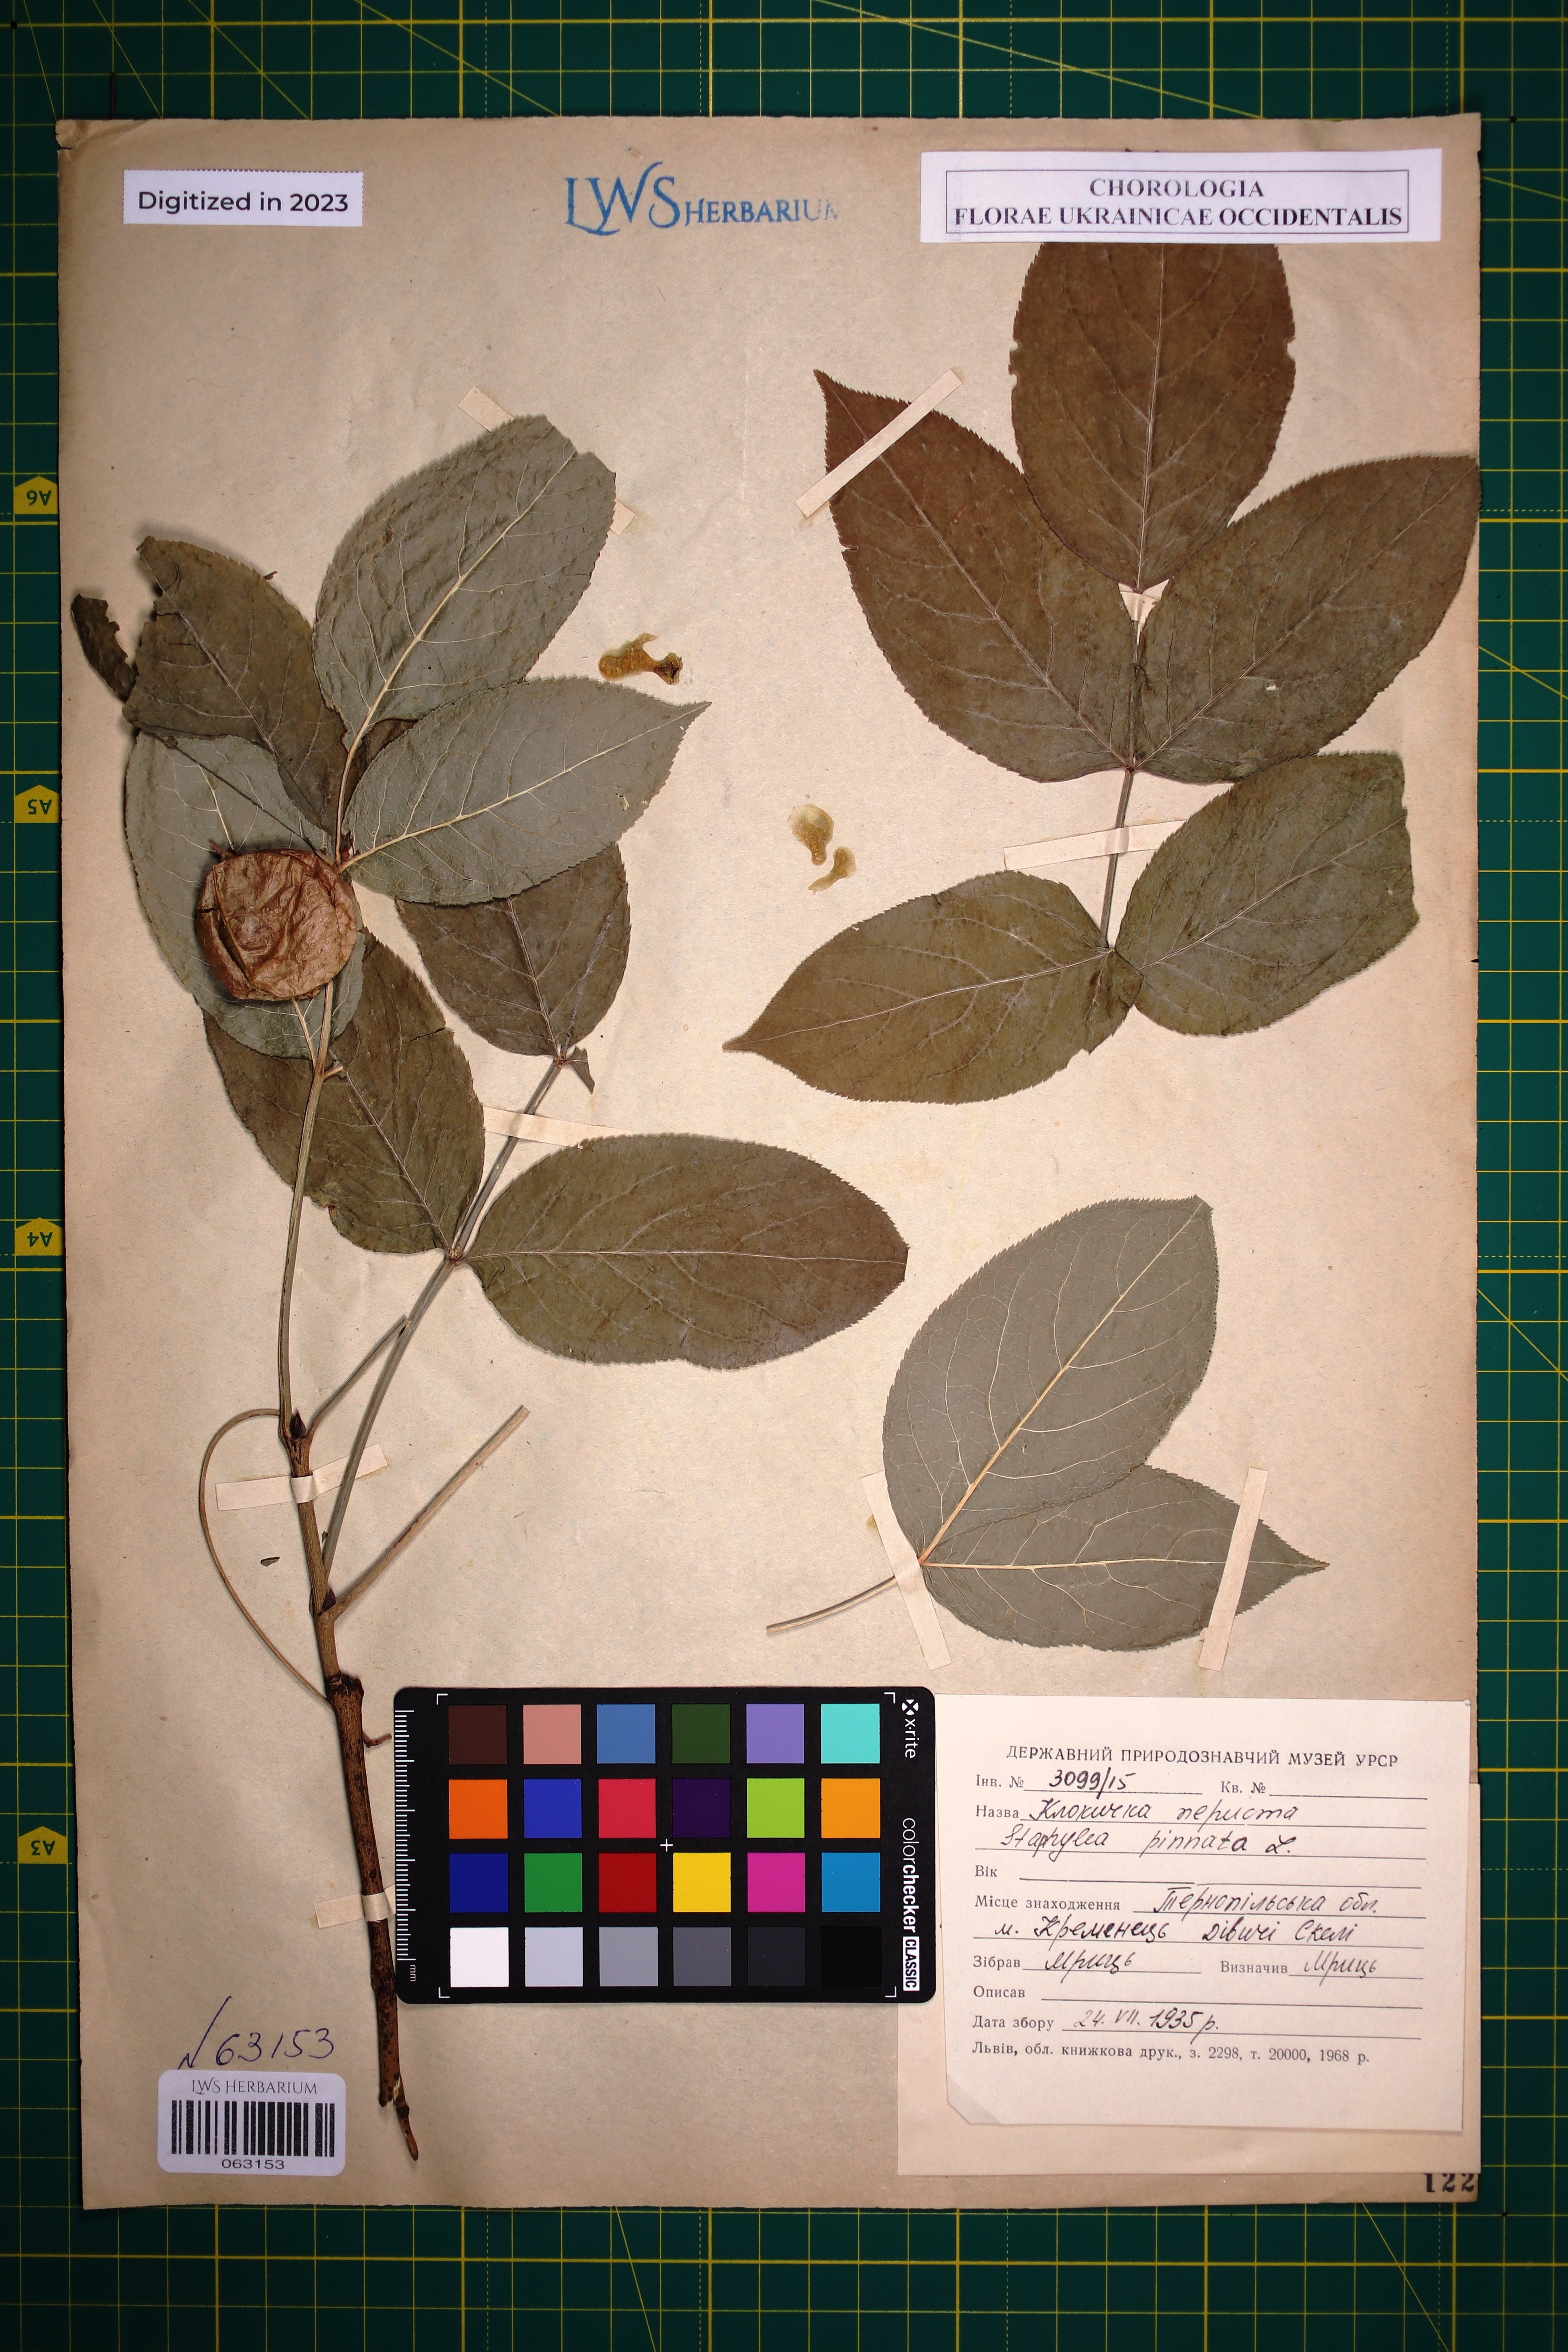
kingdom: Plantae
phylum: Tracheophyta
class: Magnoliopsida
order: Crossosomatales
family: Staphyleaceae
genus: Staphylea
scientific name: Staphylea pinnata
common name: Bladdernut
